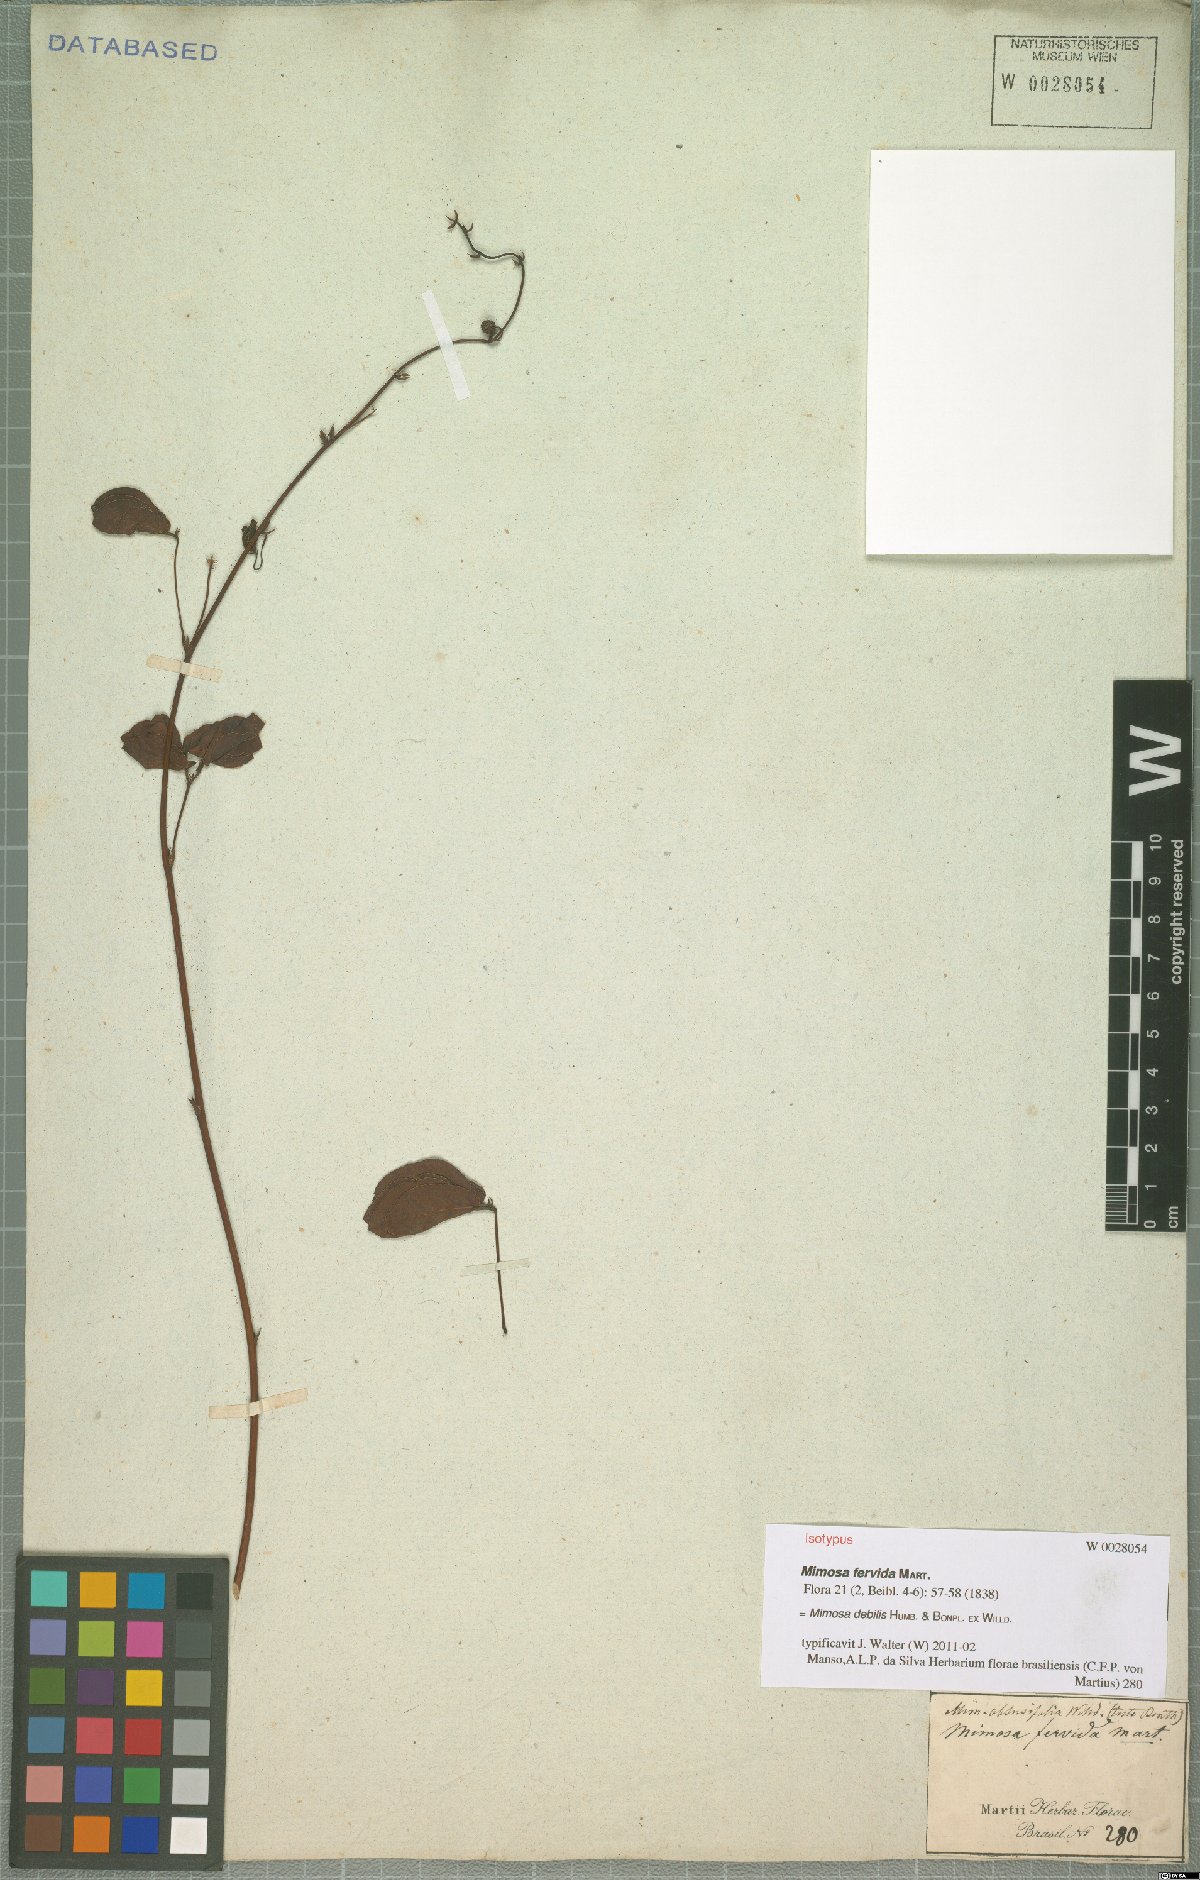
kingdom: Plantae
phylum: Tracheophyta
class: Magnoliopsida
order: Fabales
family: Fabaceae
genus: Mimosa
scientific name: Mimosa debilis
